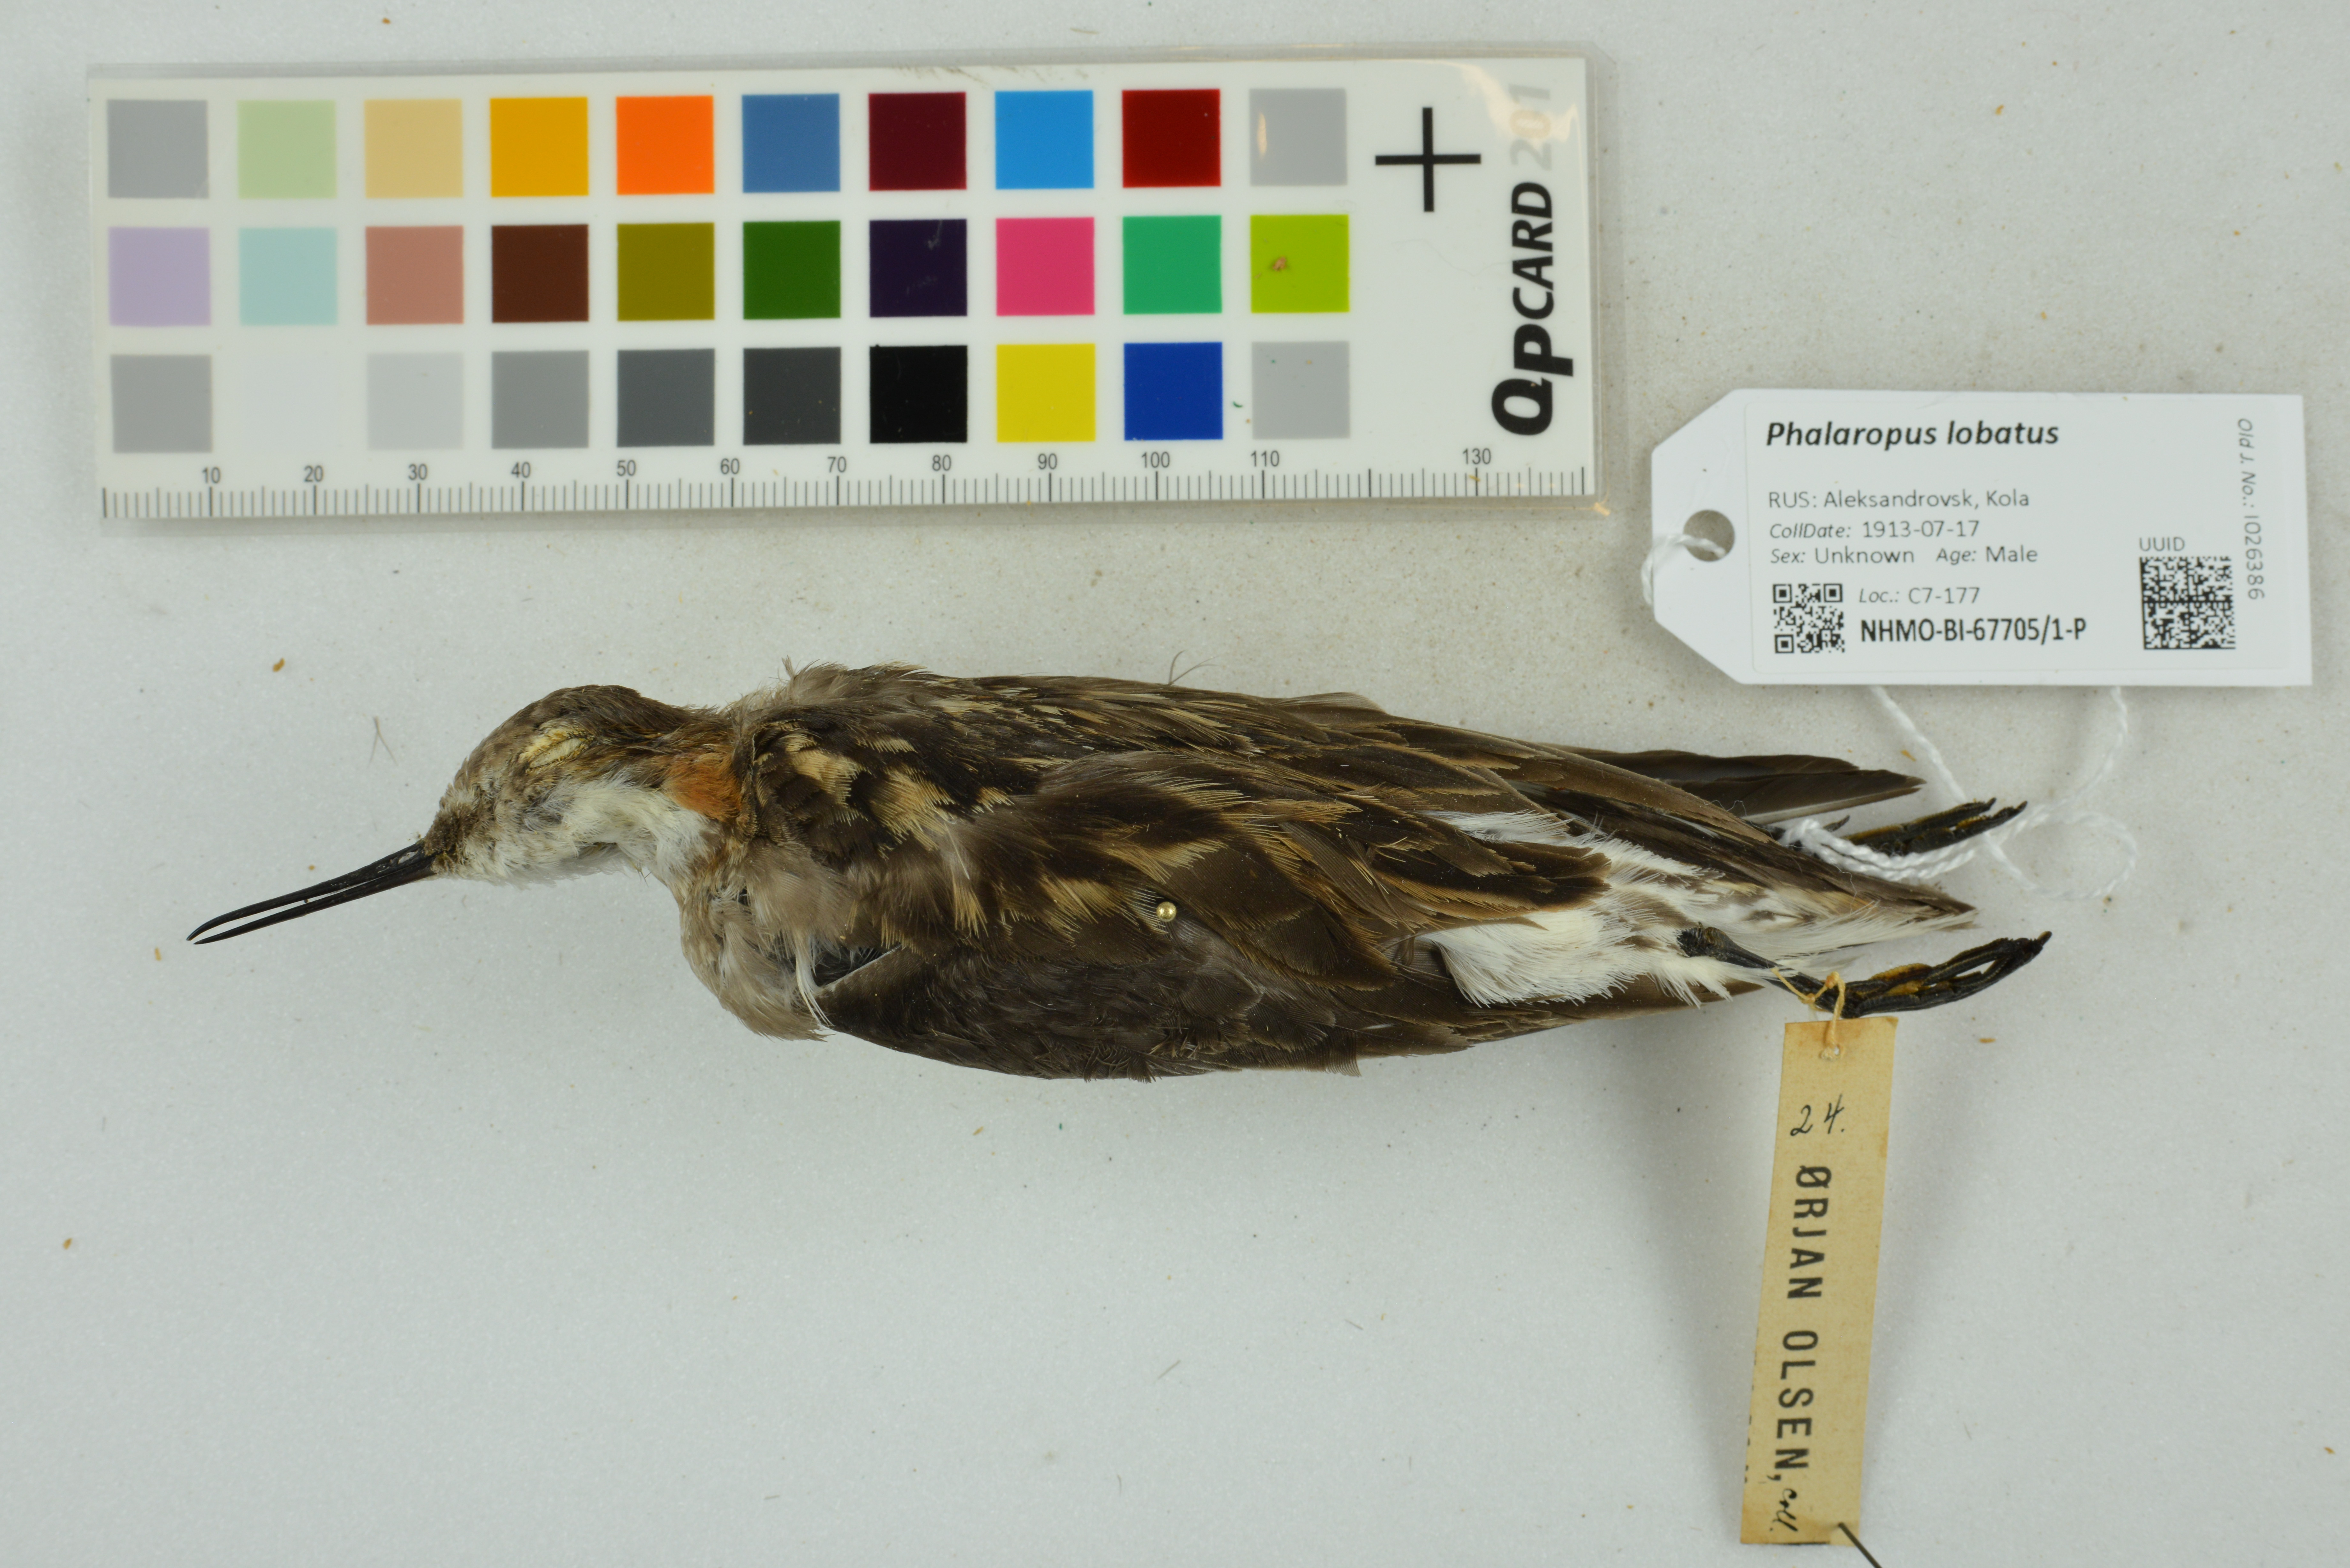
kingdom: Animalia
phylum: Chordata
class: Aves
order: Charadriiformes
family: Scolopacidae
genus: Phalaropus
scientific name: Phalaropus lobatus
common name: Red-necked phalarope
